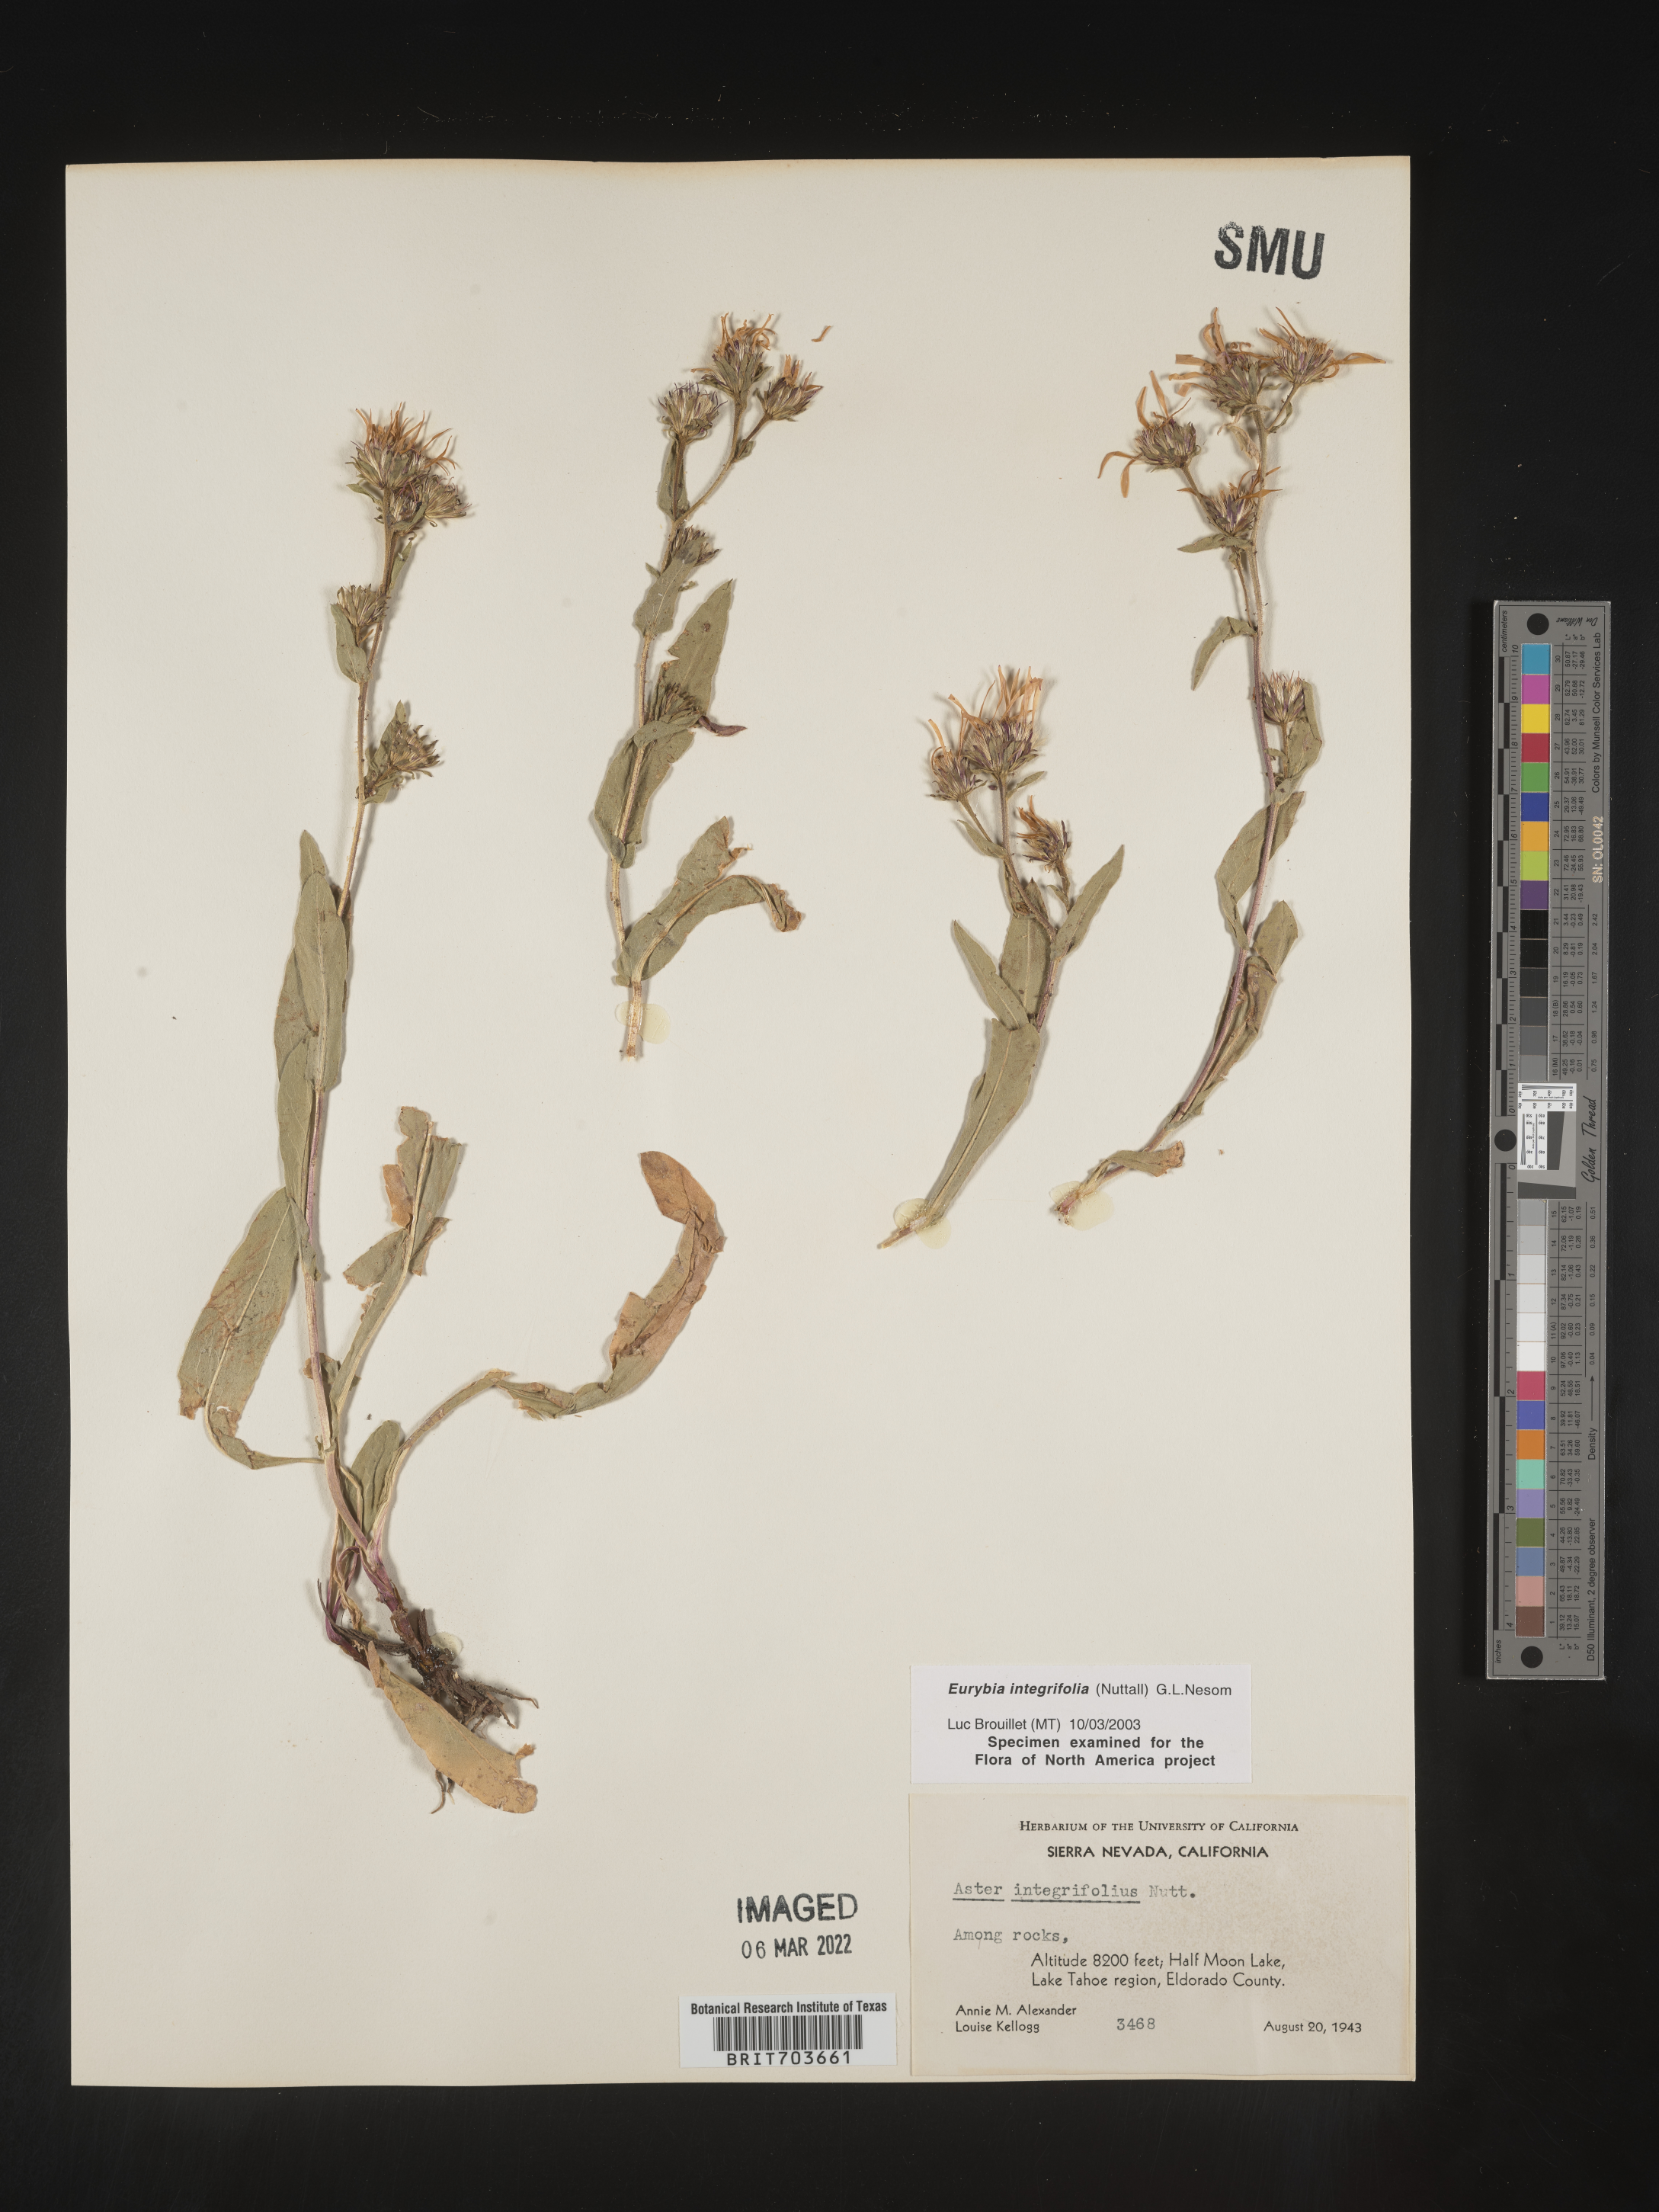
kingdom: Plantae
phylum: Tracheophyta
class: Magnoliopsida
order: Asterales
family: Asteraceae
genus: Eurybia
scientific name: Eurybia integrifolia
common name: Thick-stem aster
